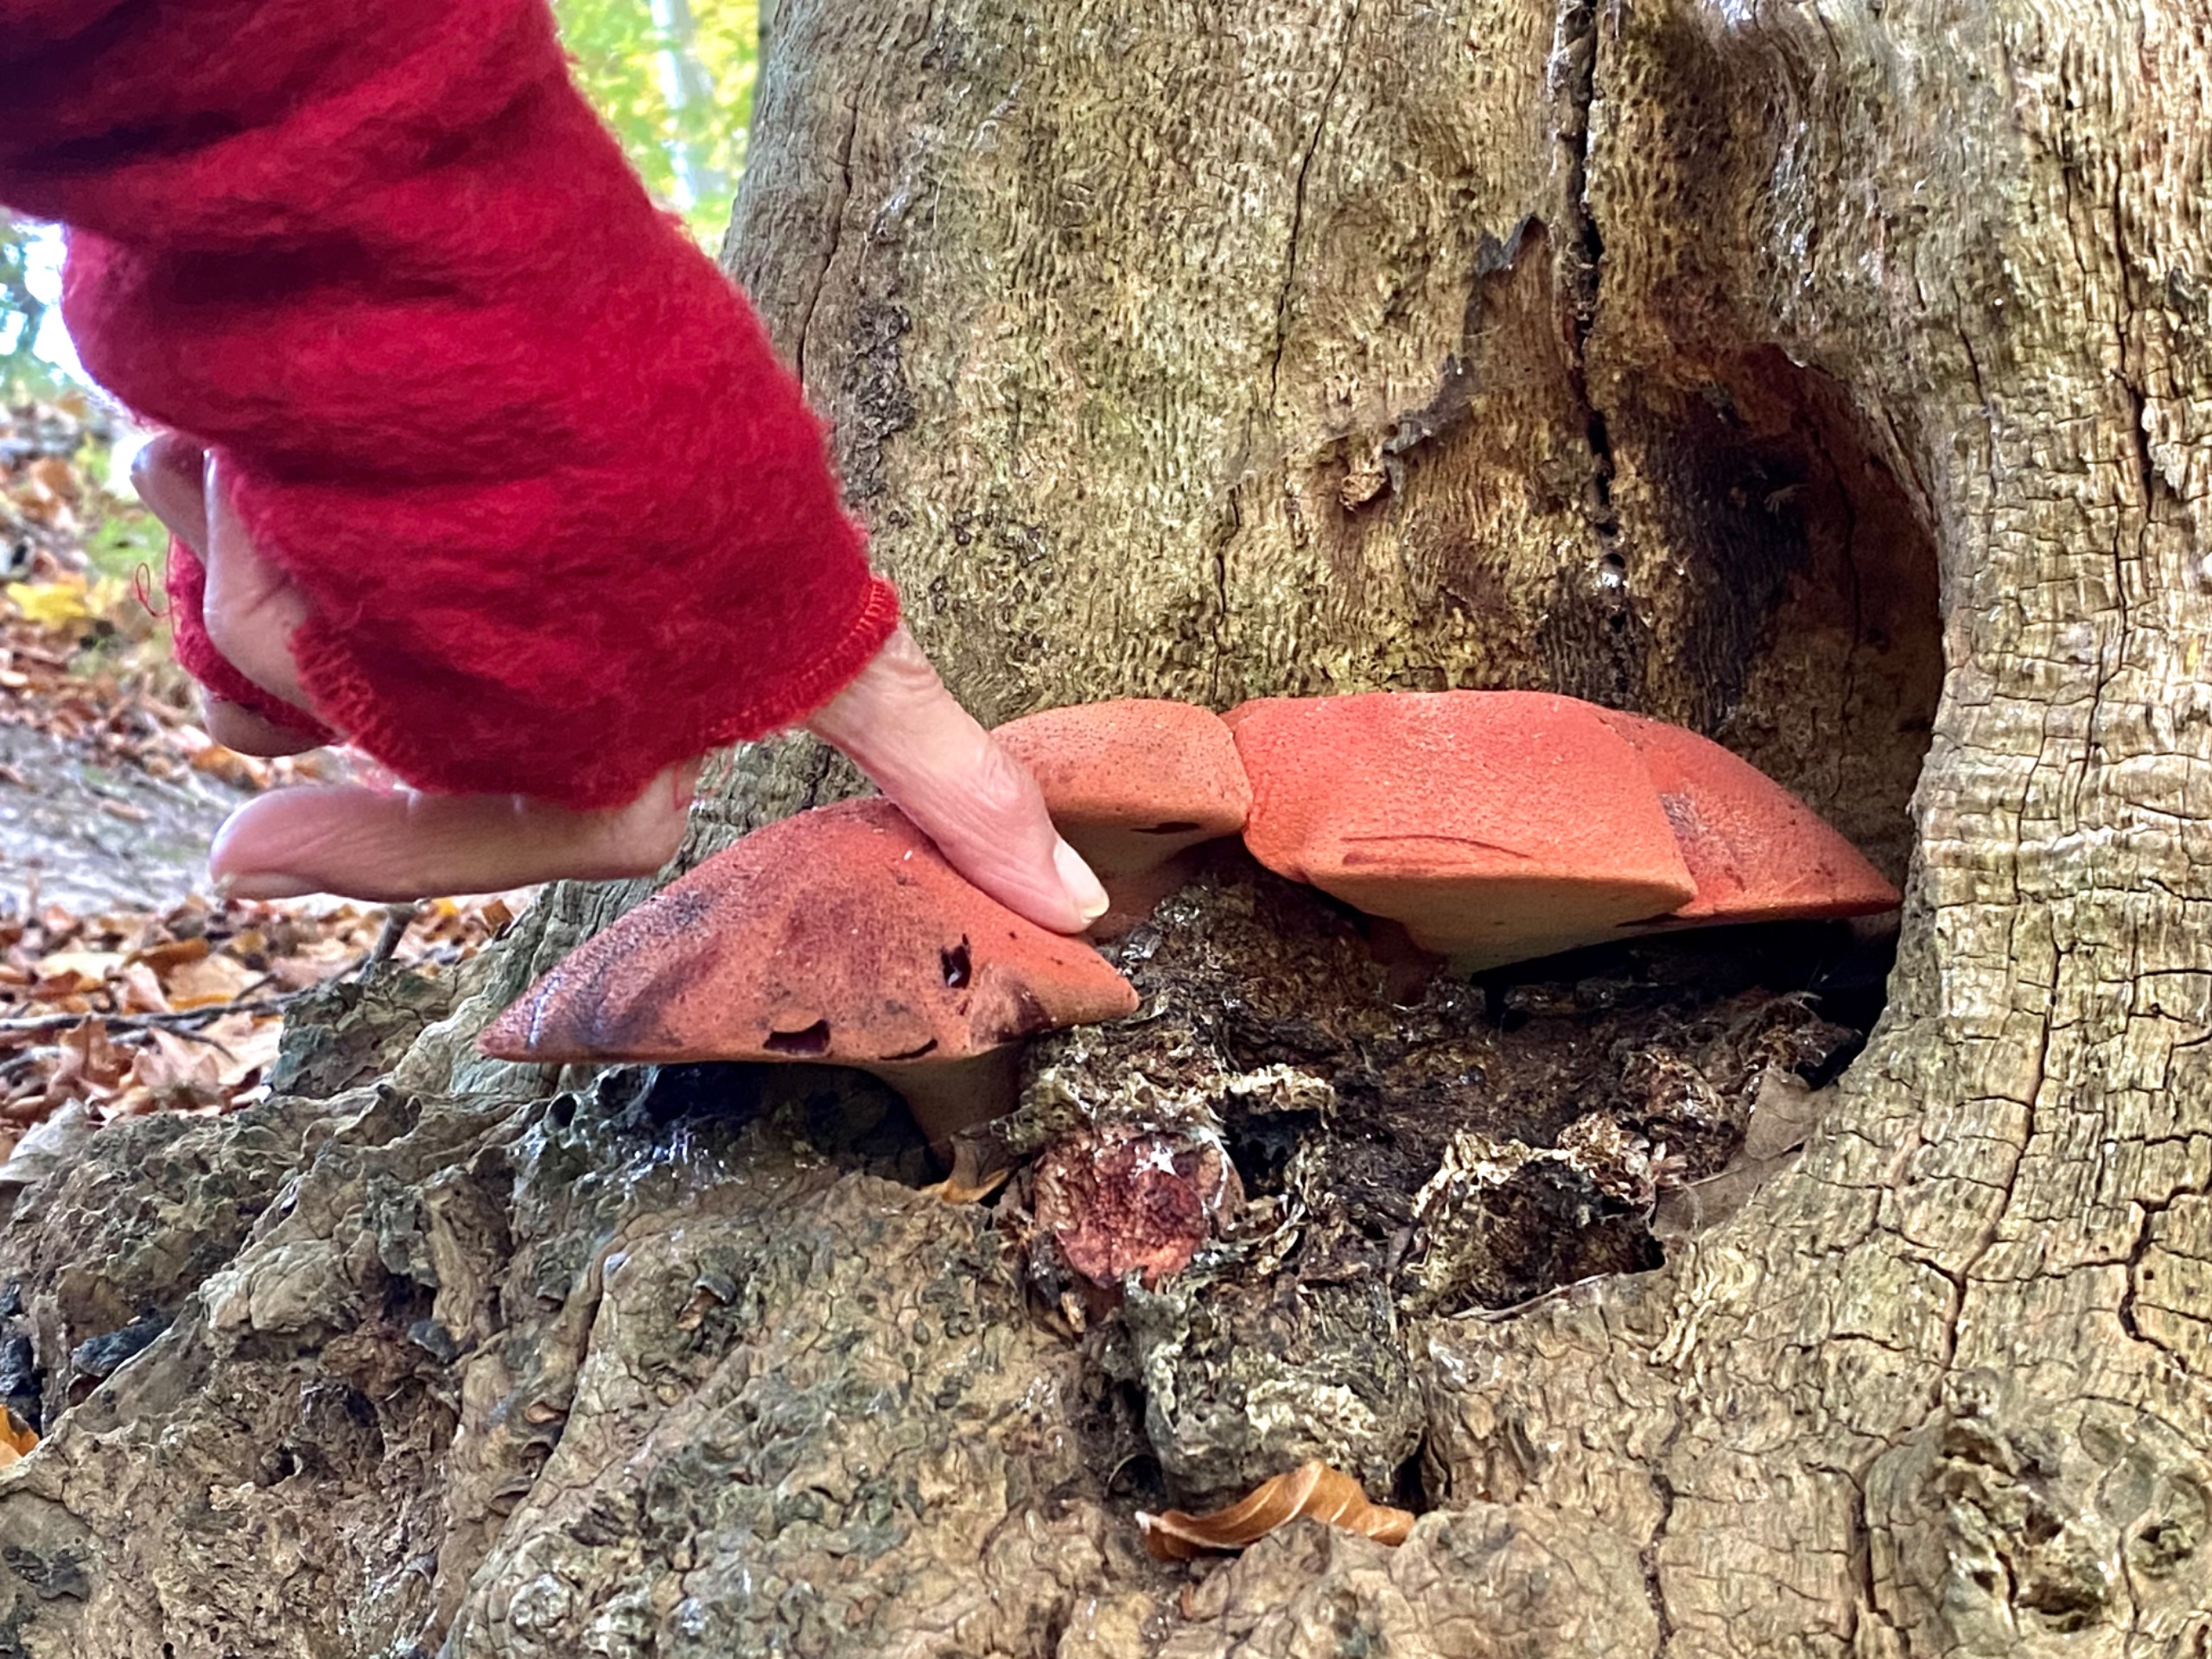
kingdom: Fungi
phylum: Basidiomycota
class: Agaricomycetes
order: Agaricales
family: Fistulinaceae
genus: Fistulina
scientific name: Fistulina hepatica
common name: Oksetunge
